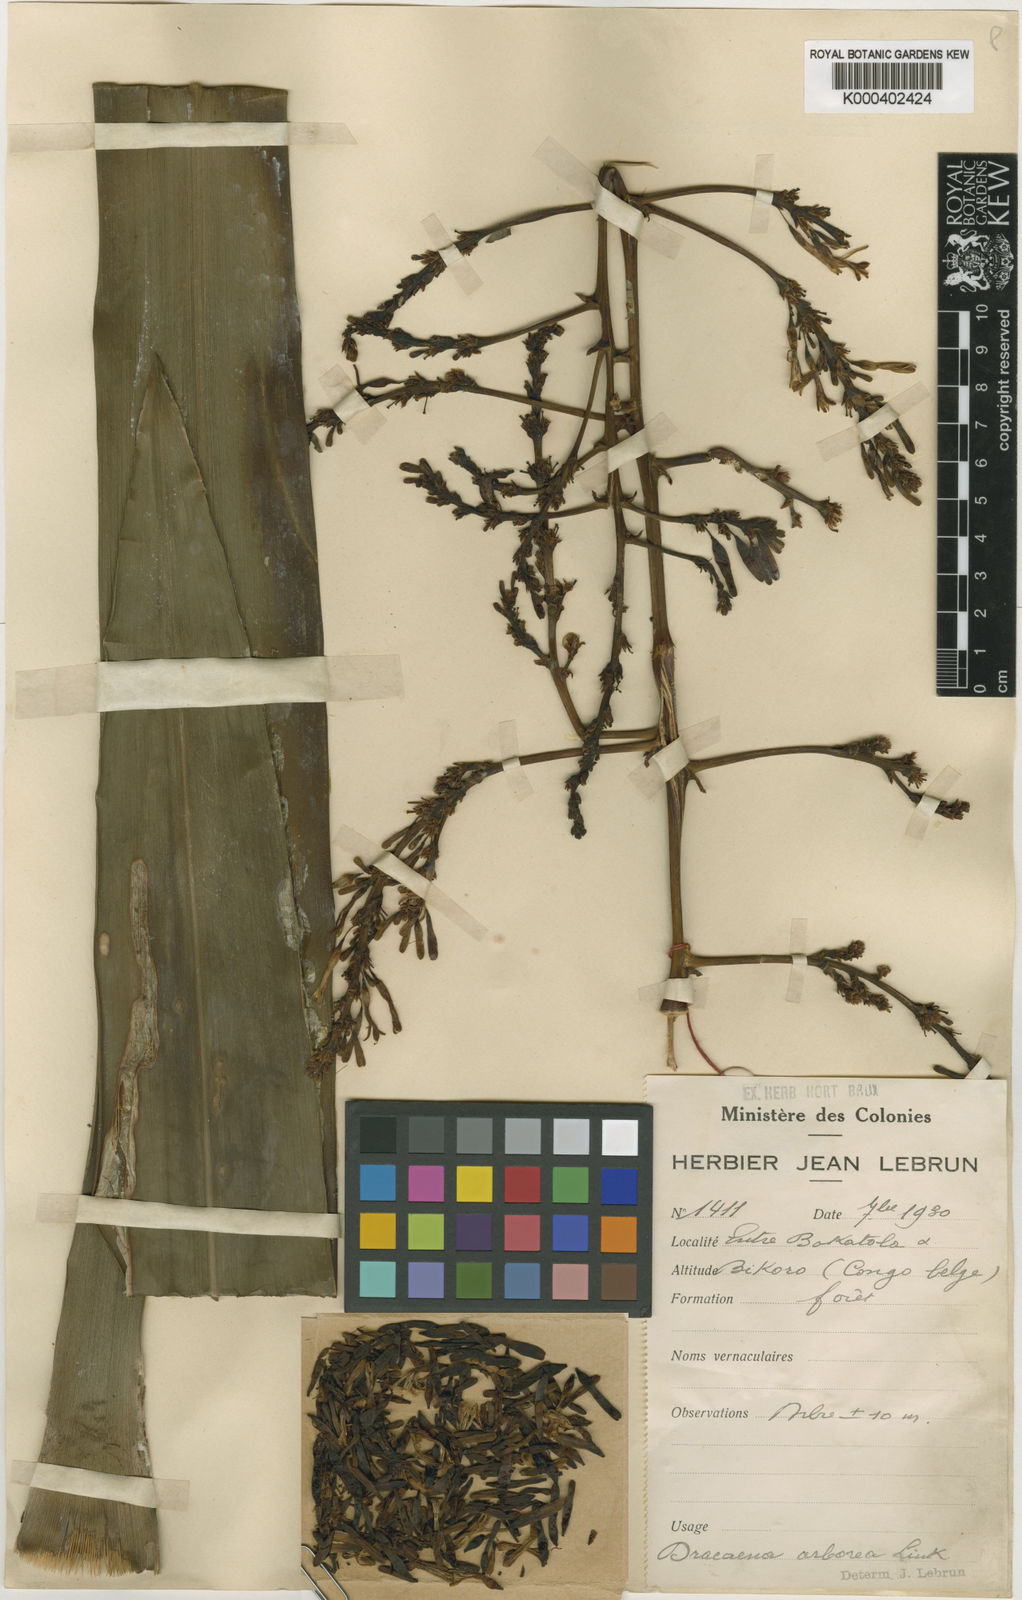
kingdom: Plantae
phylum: Tracheophyta
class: Liliopsida
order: Asparagales
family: Asparagaceae
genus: Dracaena
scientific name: Dracaena arborea
